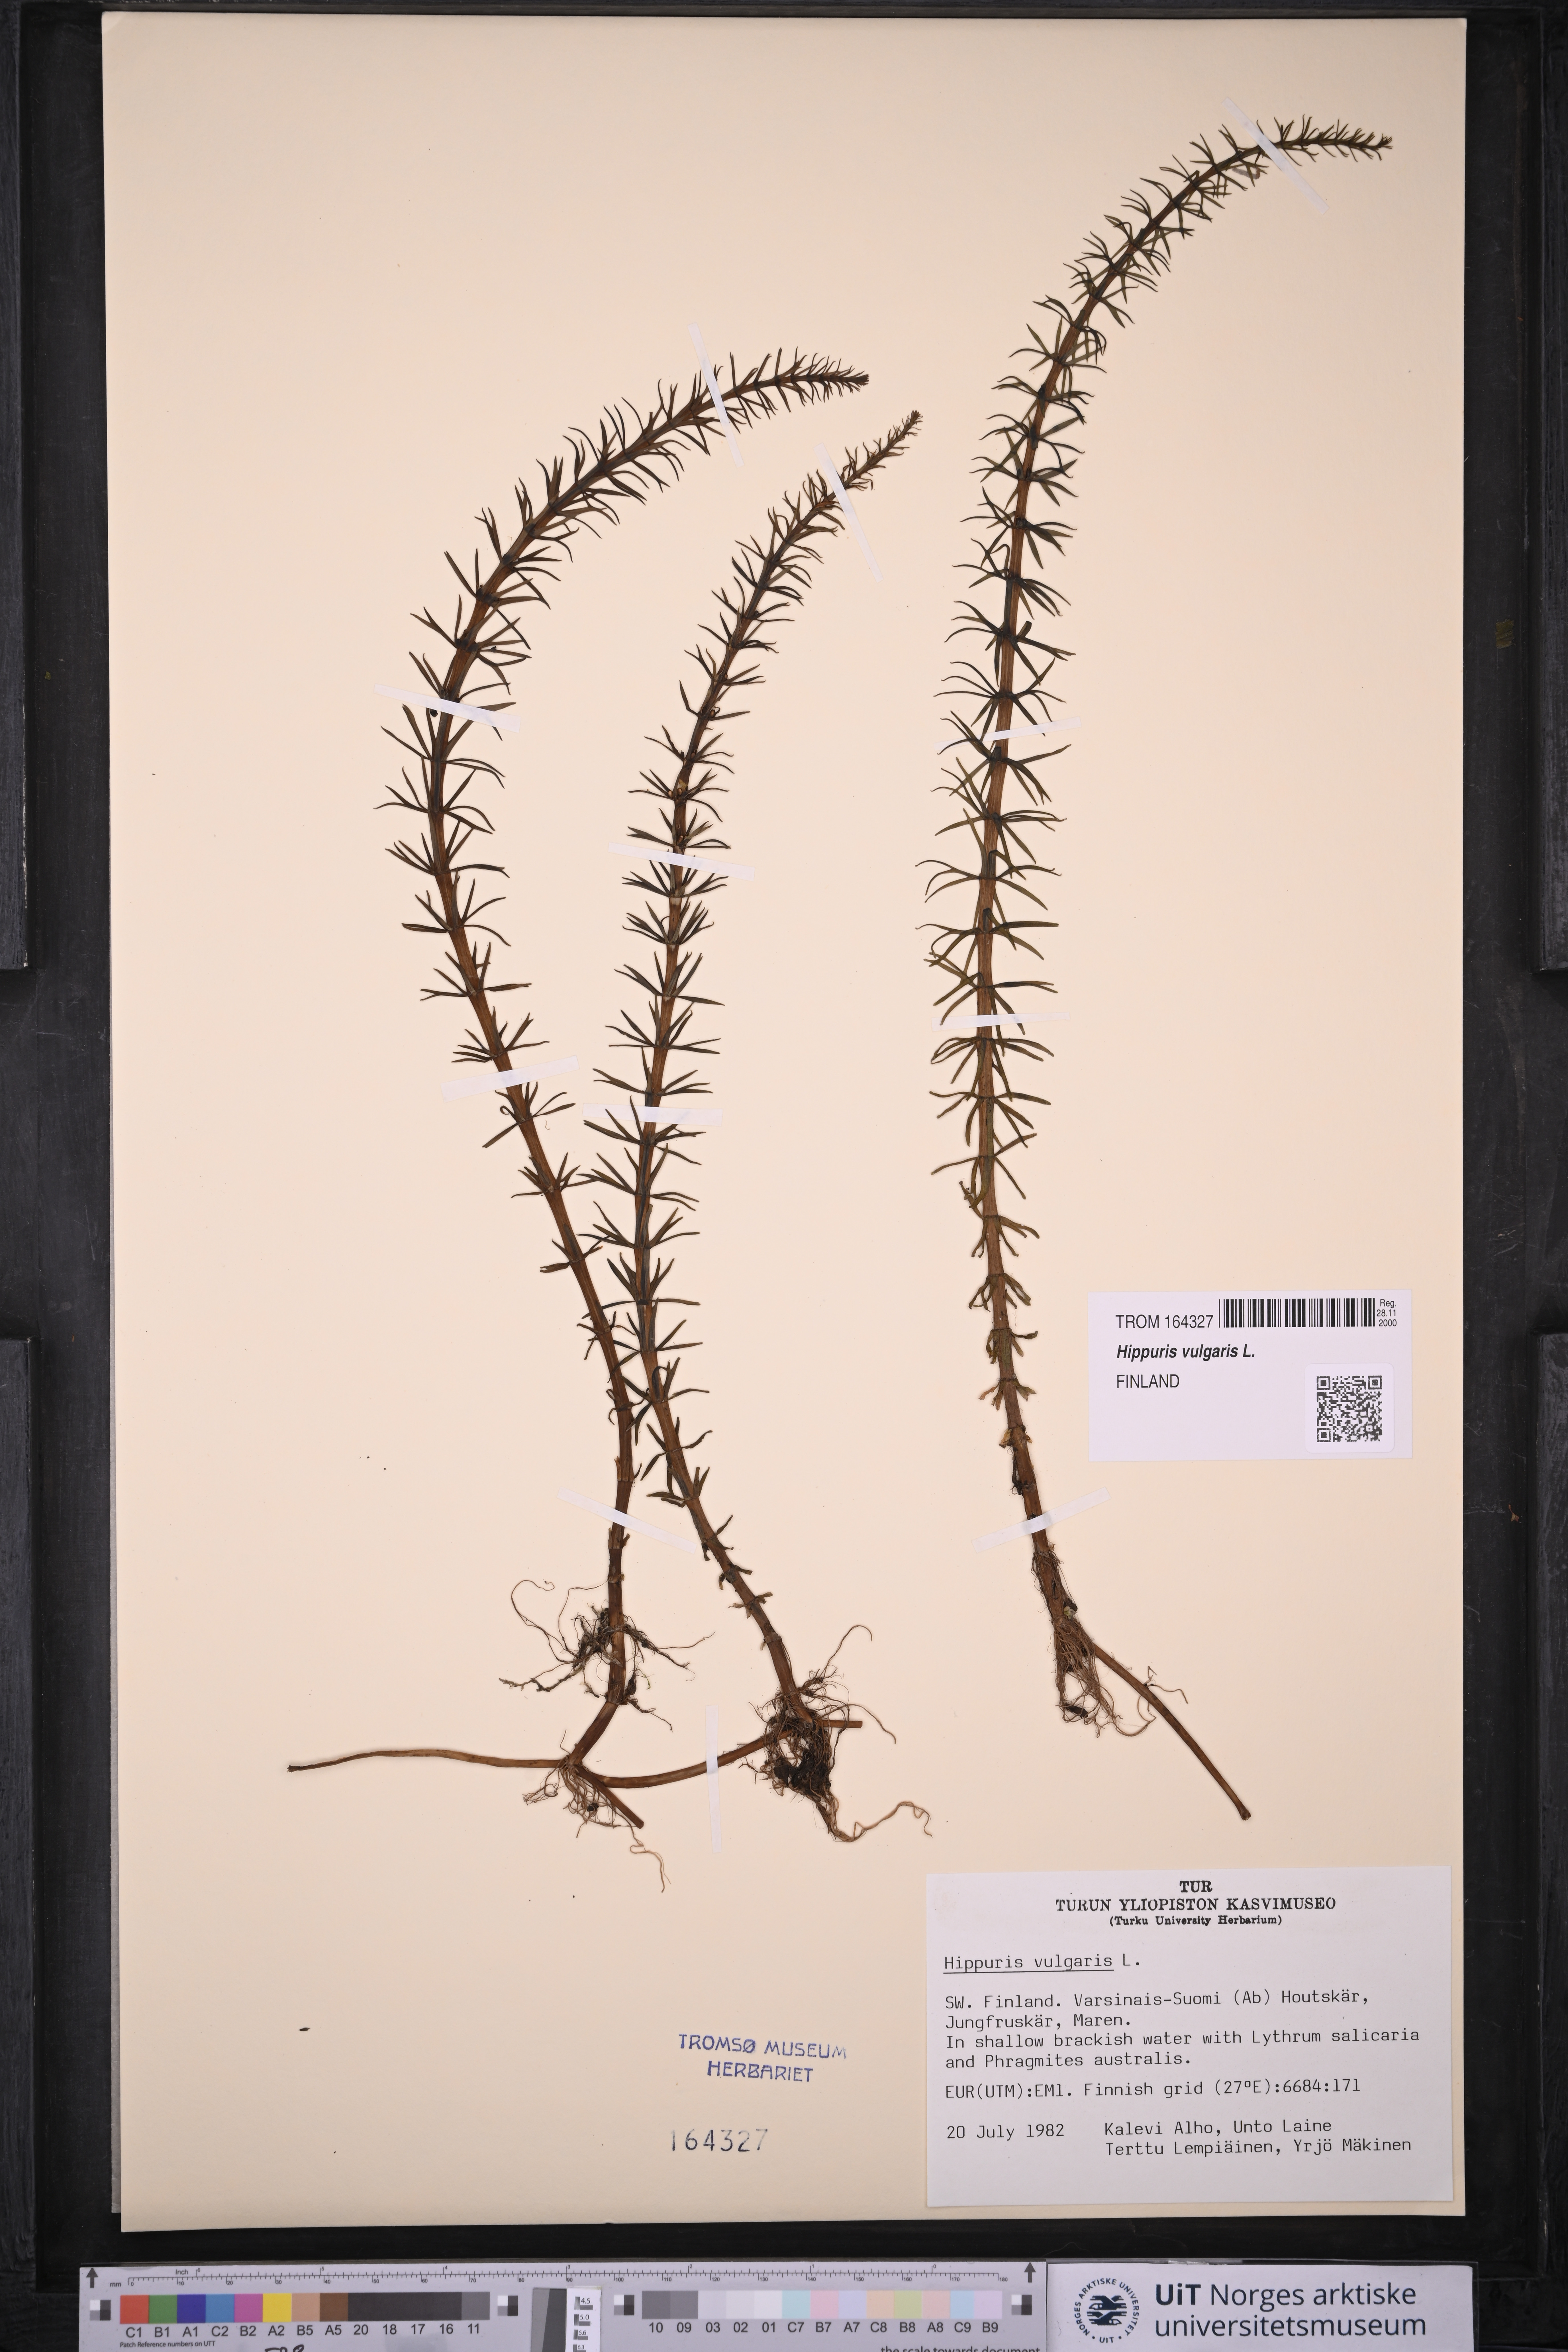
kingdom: Plantae
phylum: Tracheophyta
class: Magnoliopsida
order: Lamiales
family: Plantaginaceae
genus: Hippuris
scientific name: Hippuris vulgaris
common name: Mare's-tail
